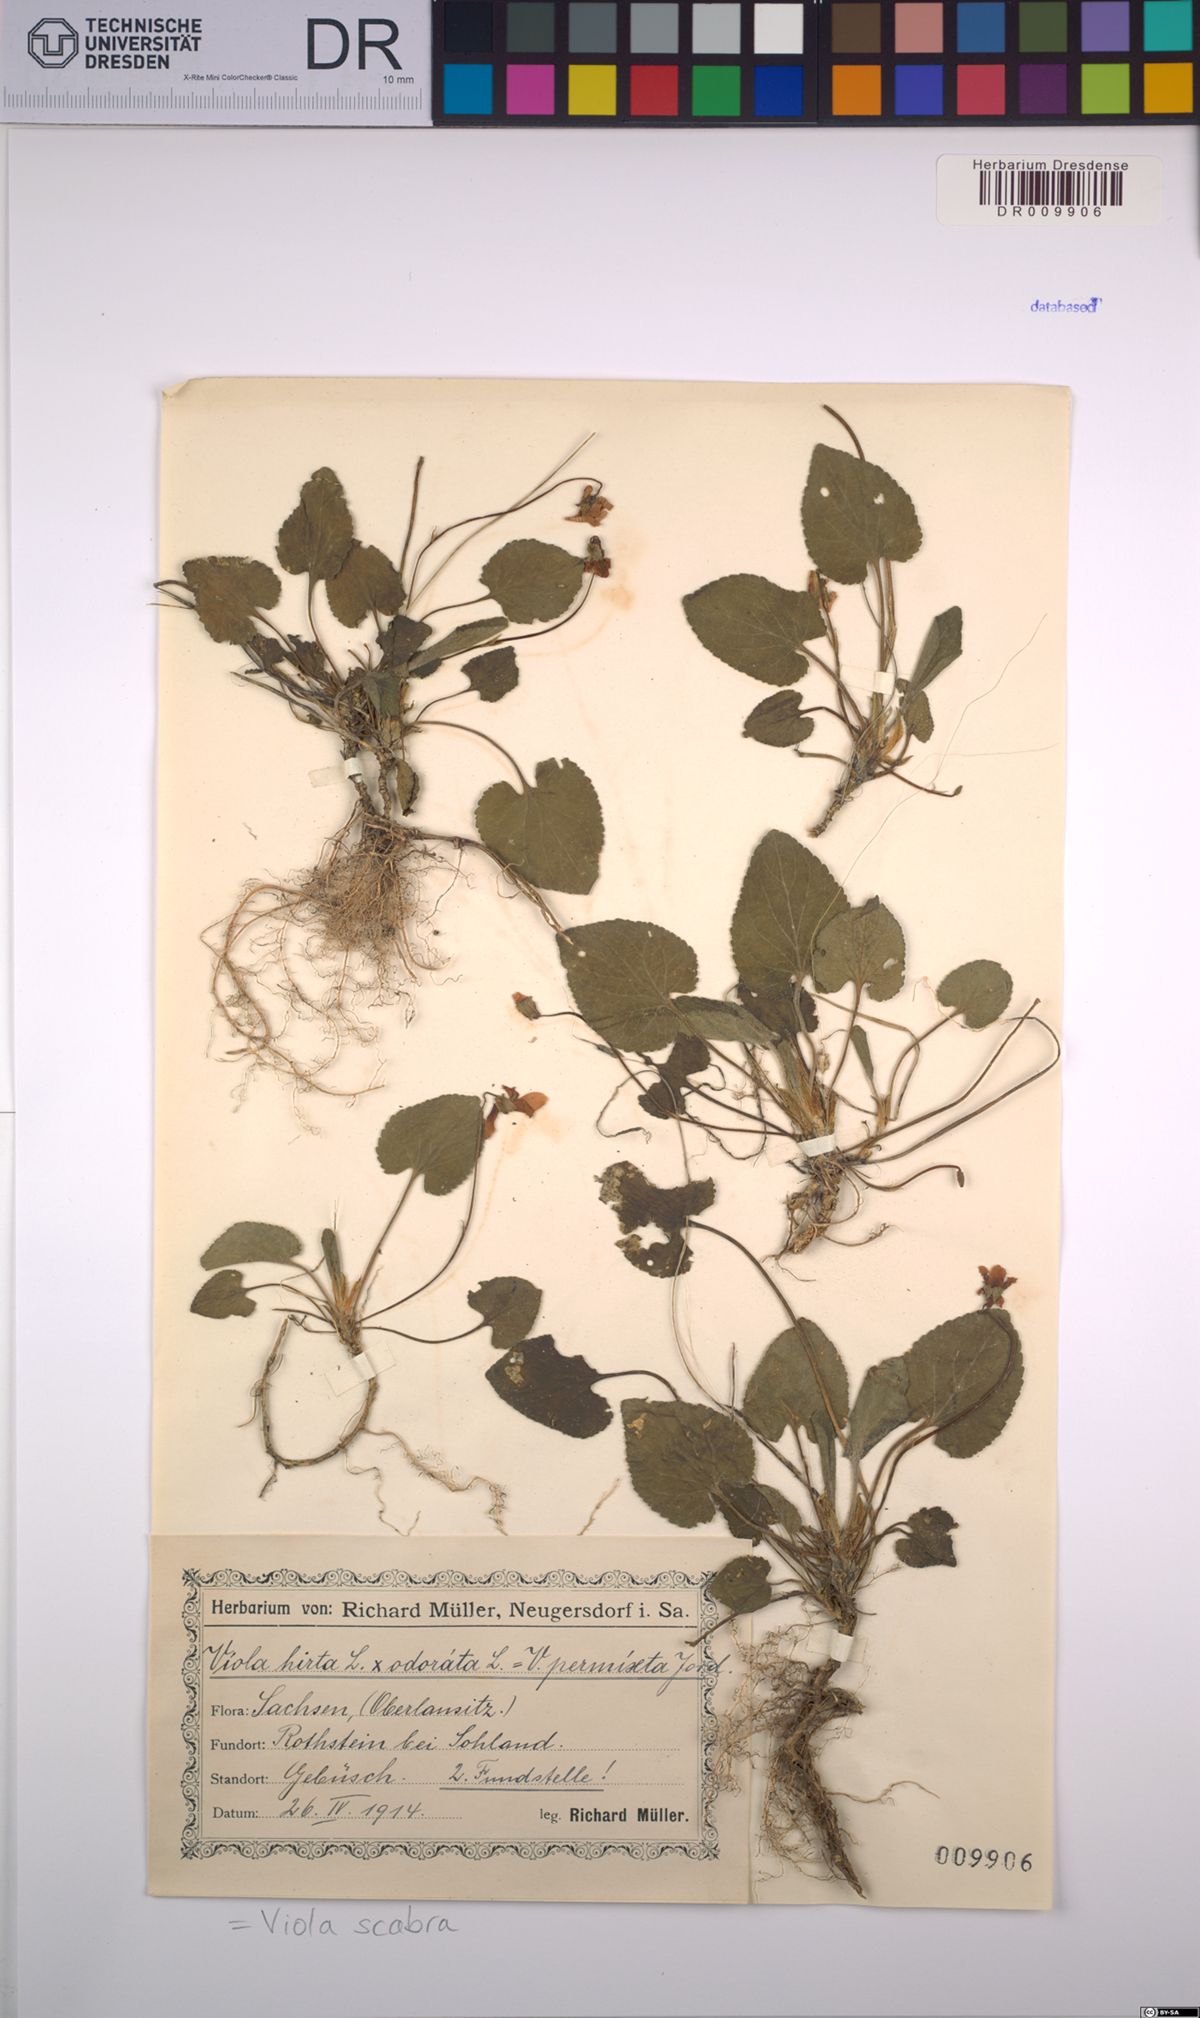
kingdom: Plantae
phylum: Tracheophyta
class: Magnoliopsida
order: Malpighiales
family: Violaceae
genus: Viola
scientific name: Viola scabra
